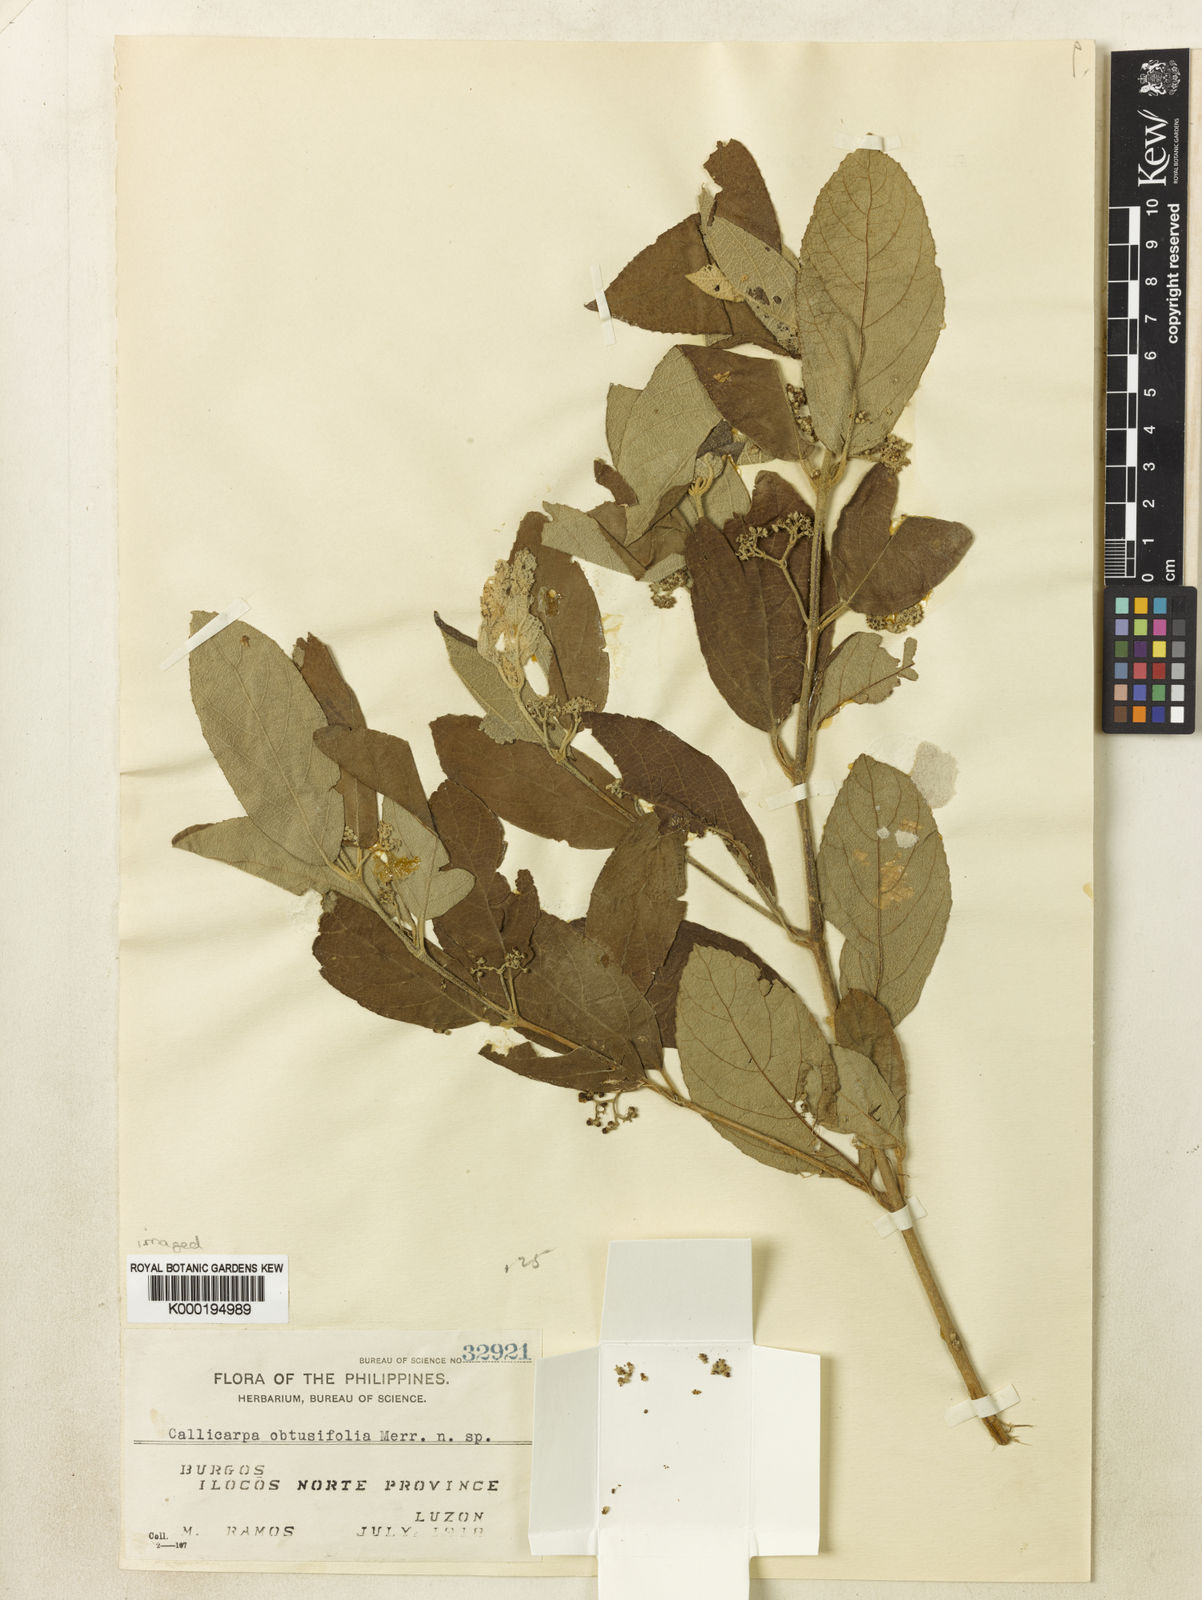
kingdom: Plantae
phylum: Tracheophyta
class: Magnoliopsida
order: Lamiales
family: Lamiaceae
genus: Callicarpa
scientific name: Callicarpa pedunculata
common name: Velvetleaf
